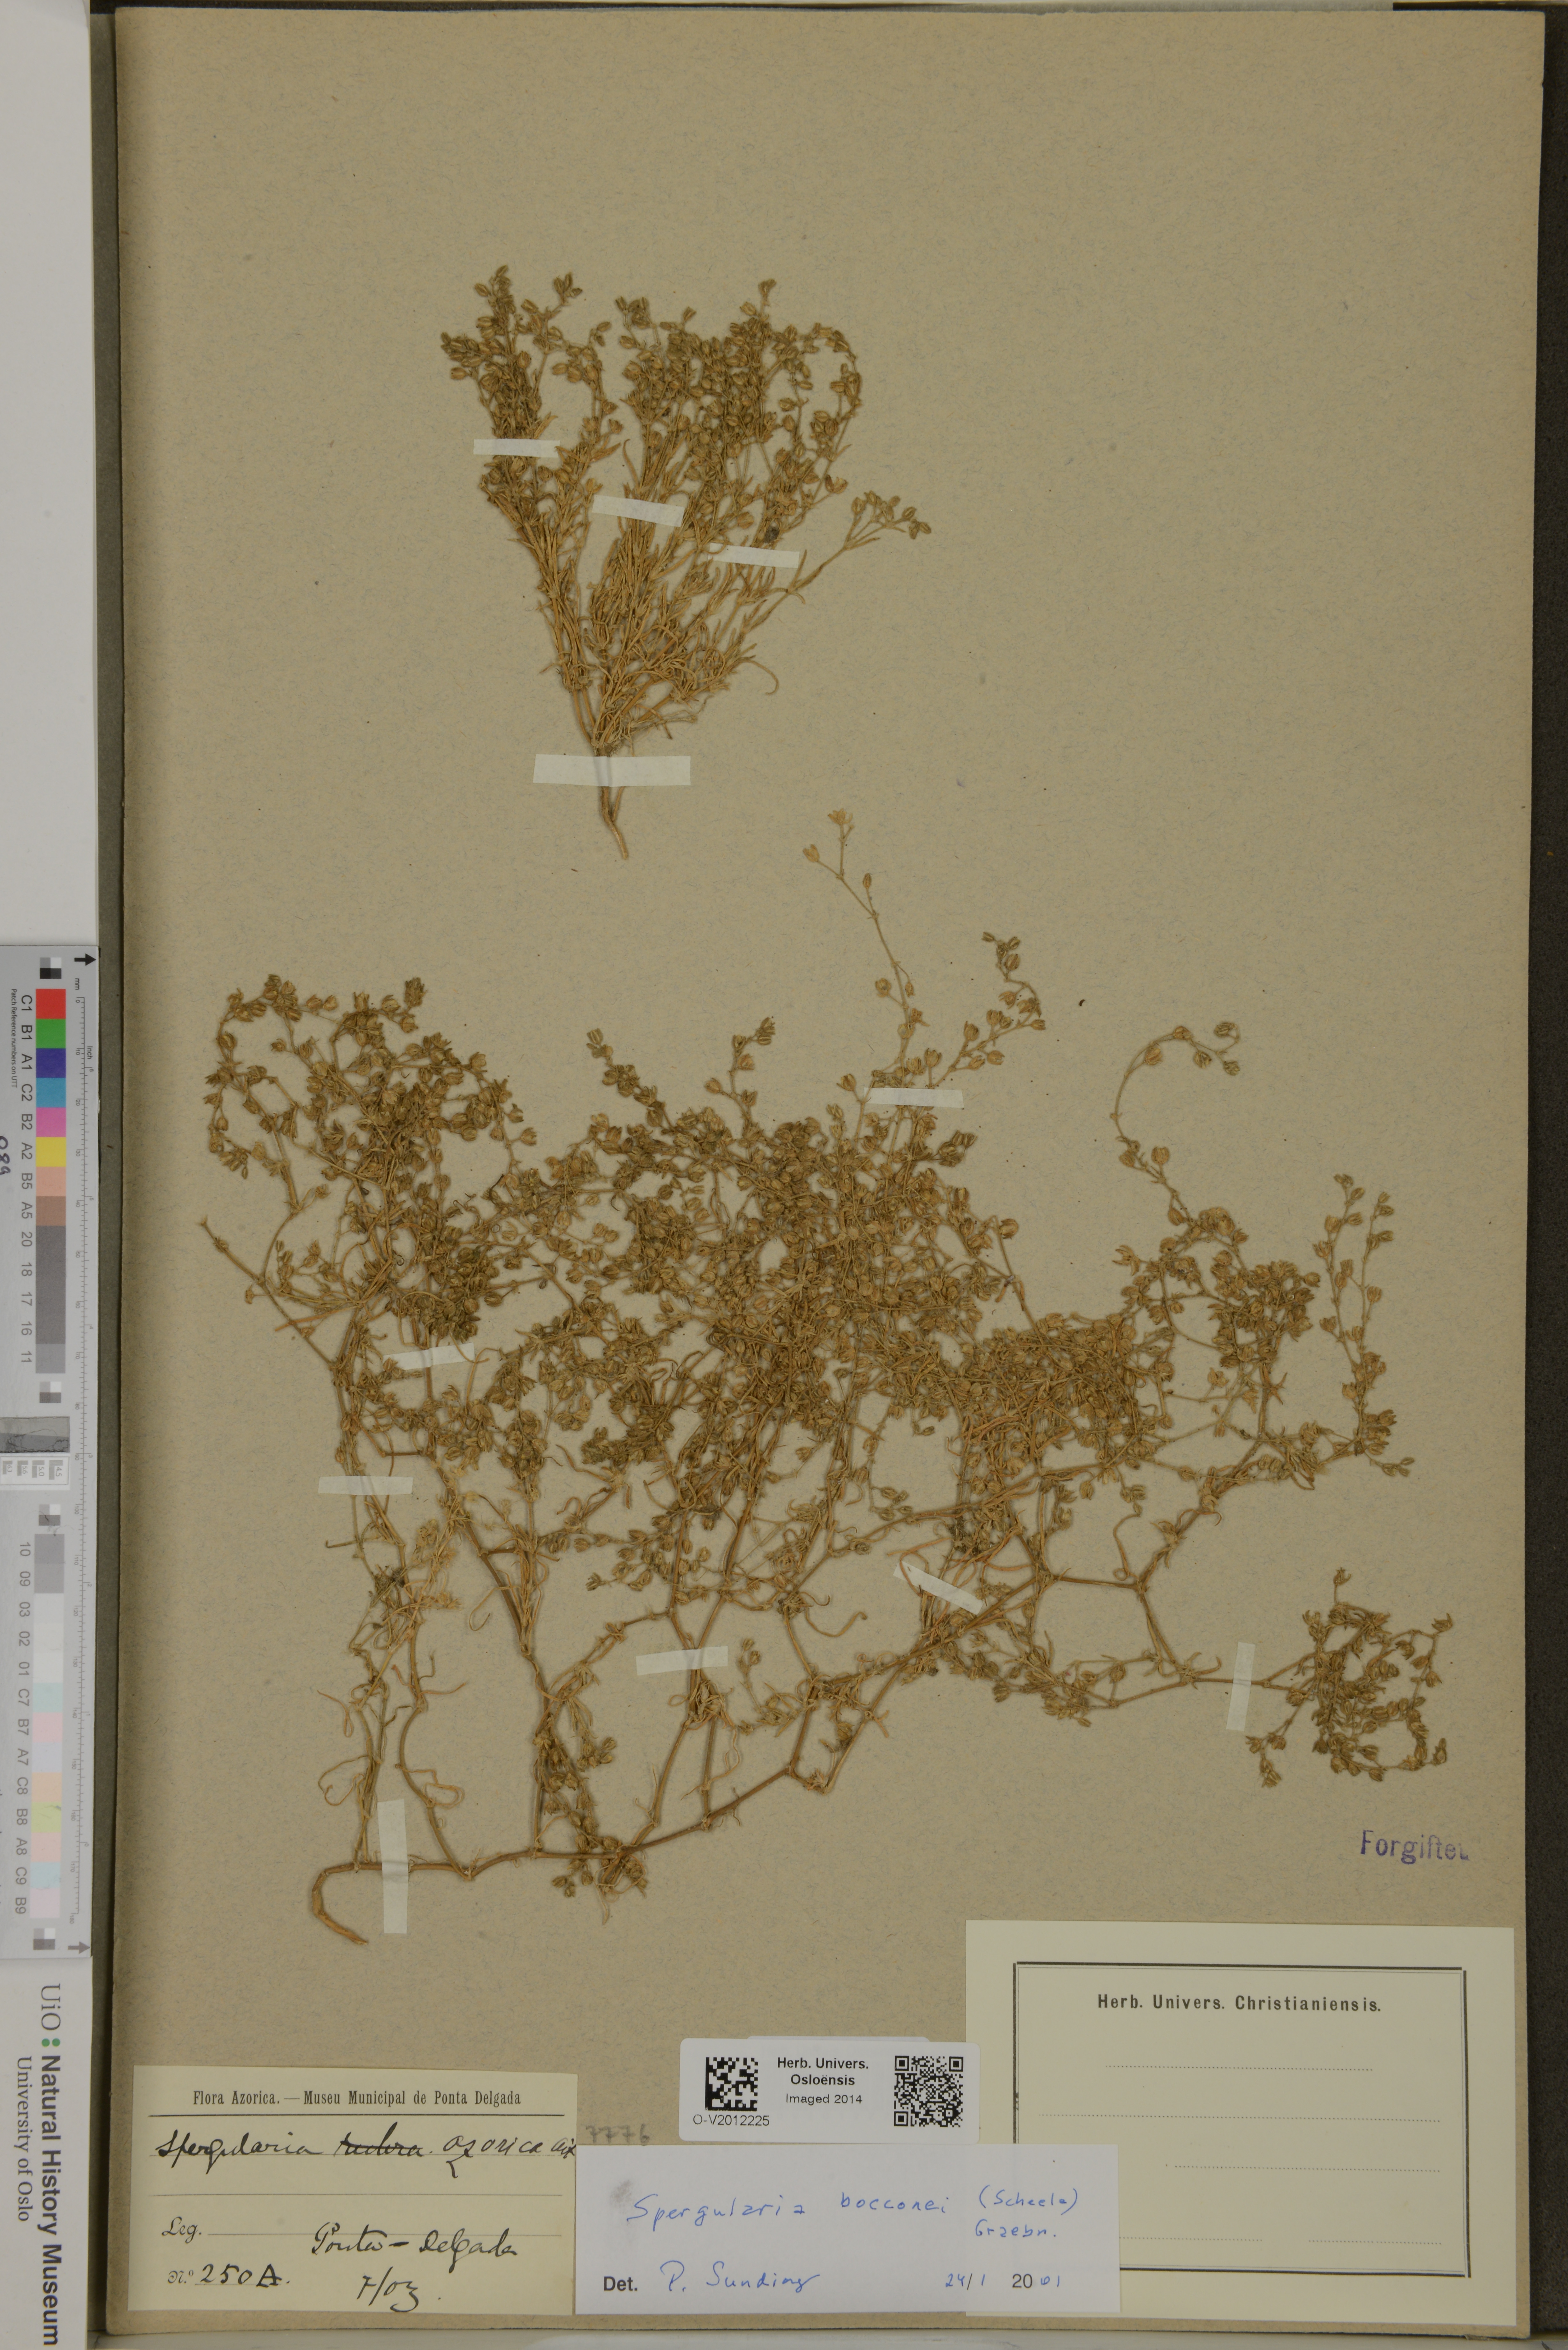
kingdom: Plantae
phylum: Tracheophyta
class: Magnoliopsida
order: Caryophyllales
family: Caryophyllaceae
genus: Spergularia
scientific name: Spergularia bocconei
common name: Greek sea-spurrey
